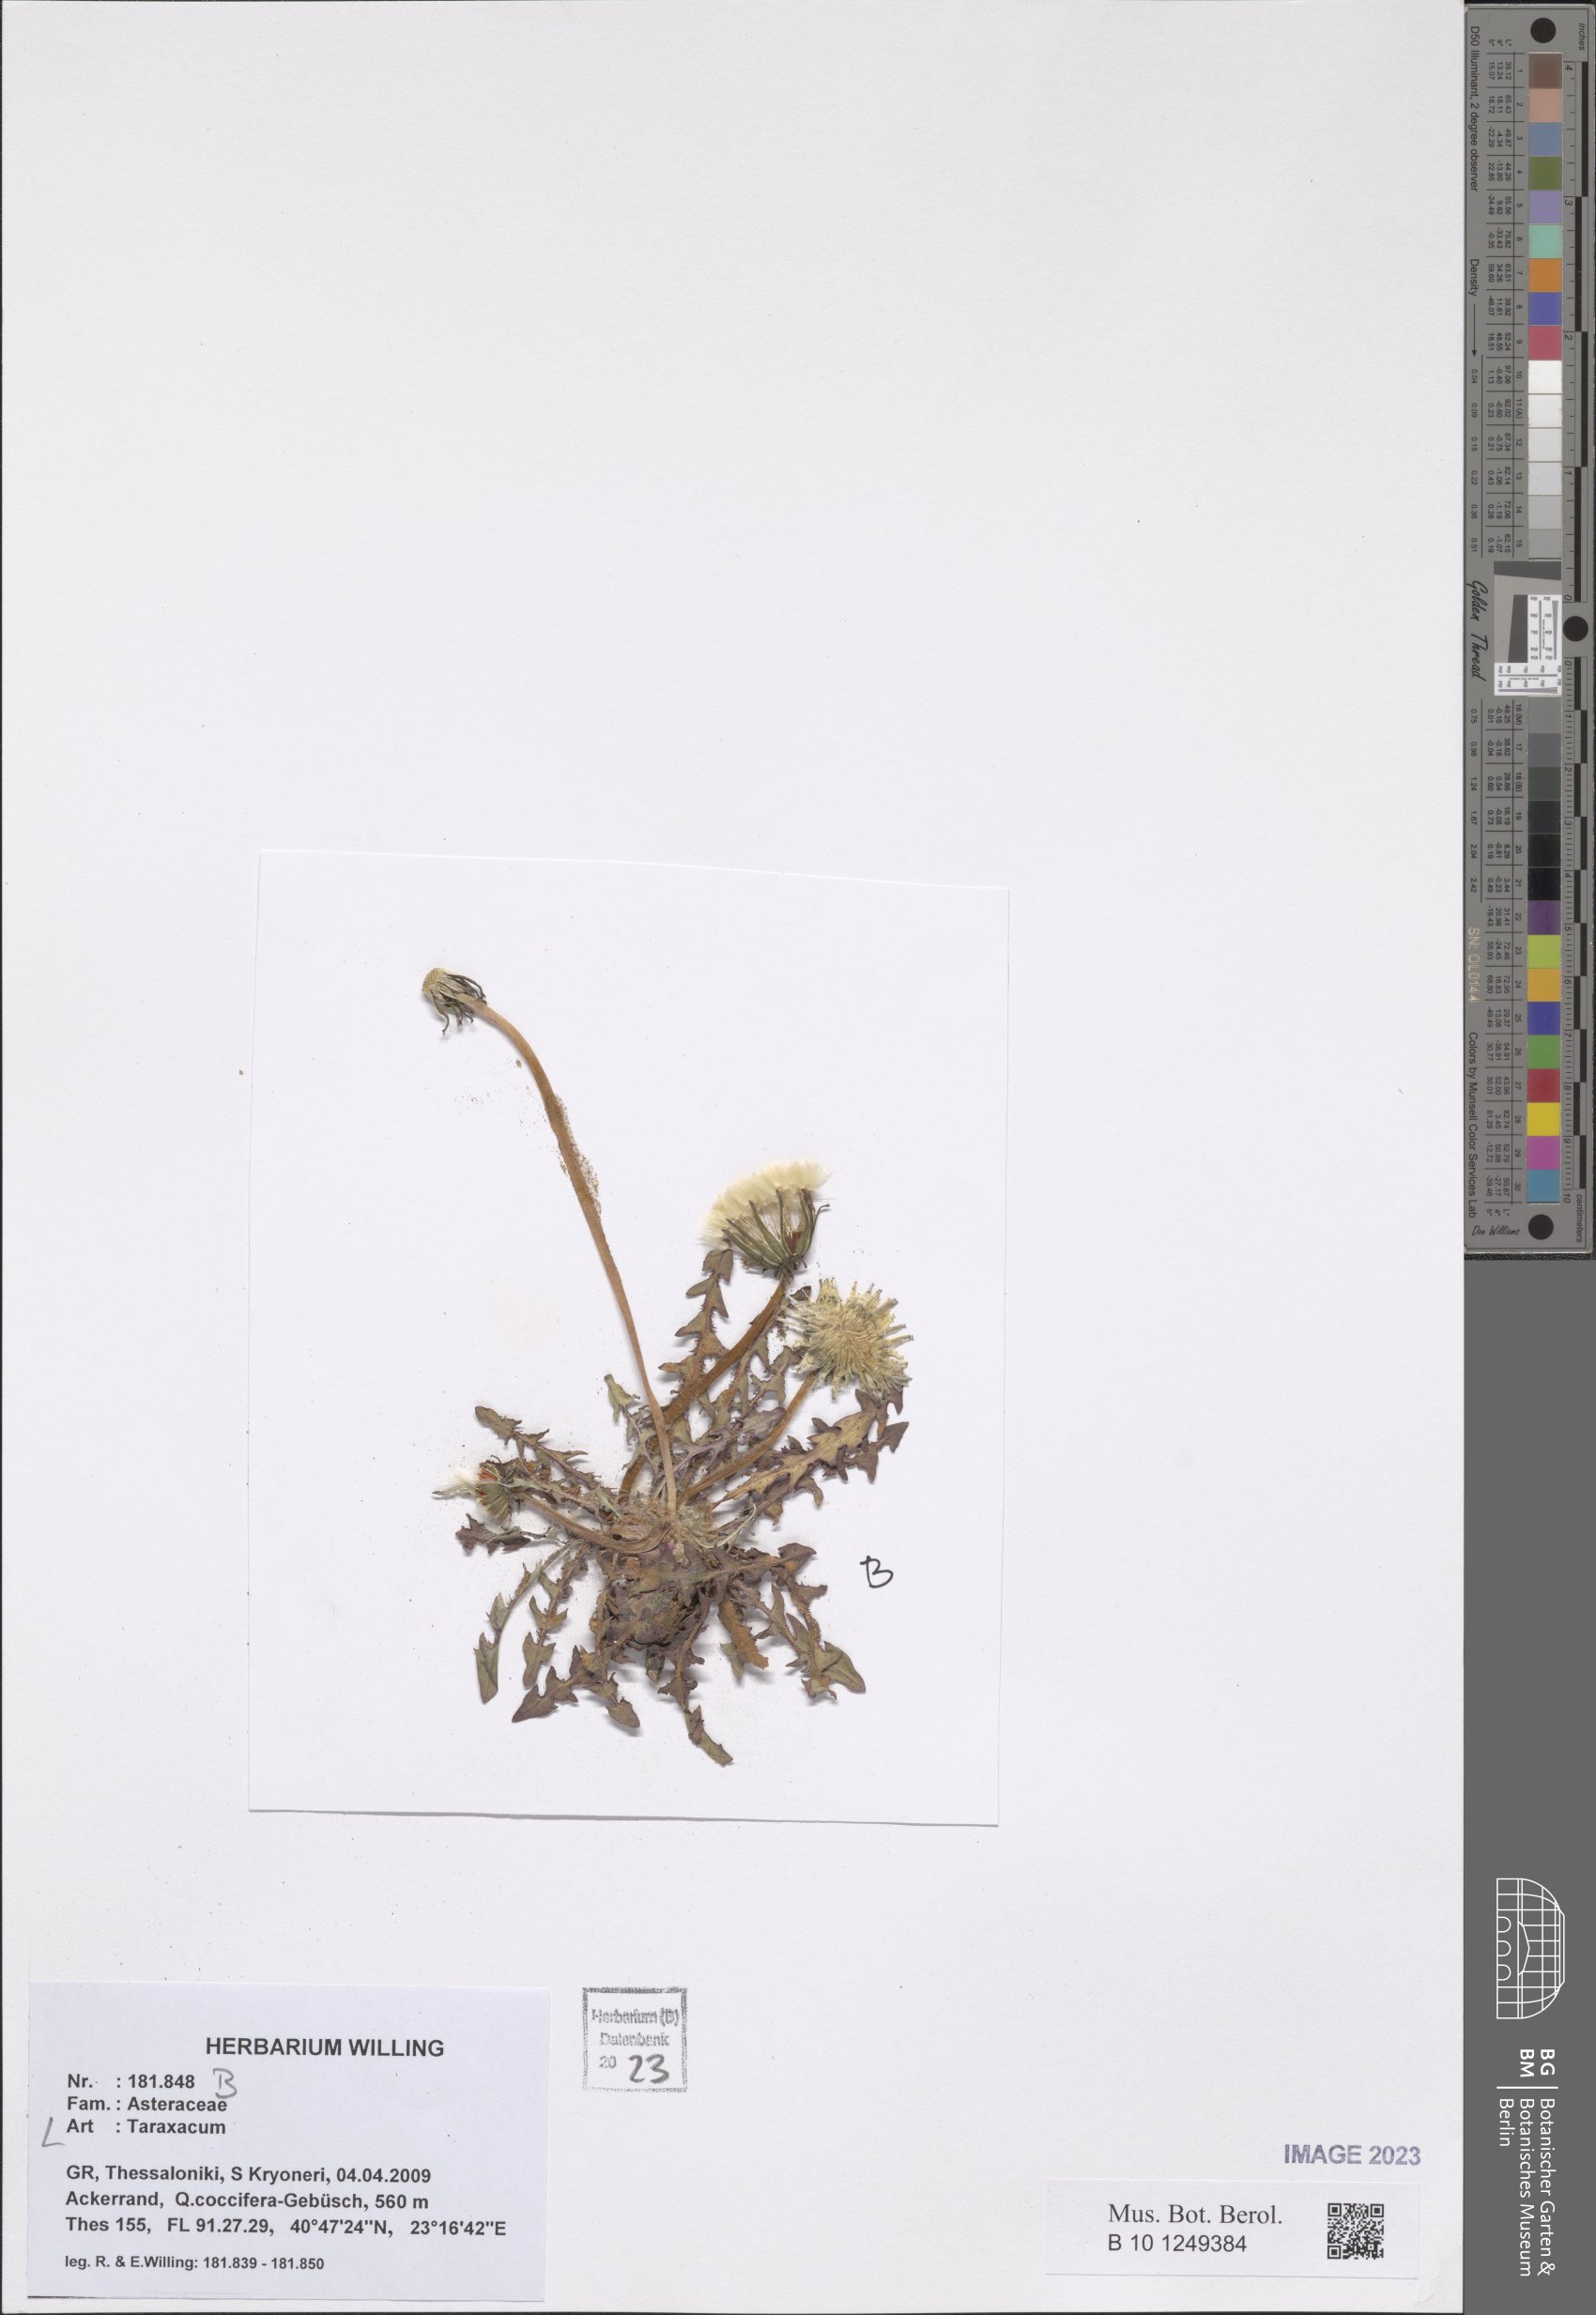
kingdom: Plantae
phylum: Tracheophyta
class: Magnoliopsida
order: Asterales
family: Asteraceae
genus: Taraxacum
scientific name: Taraxacum
